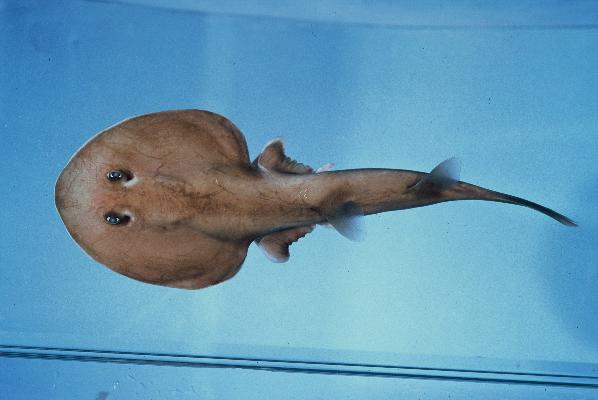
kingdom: Animalia
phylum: Chordata
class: Elasmobranchii
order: Torpediniformes
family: Narcinidae
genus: Narcine
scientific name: Narcine rierai
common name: Slender electric ray
